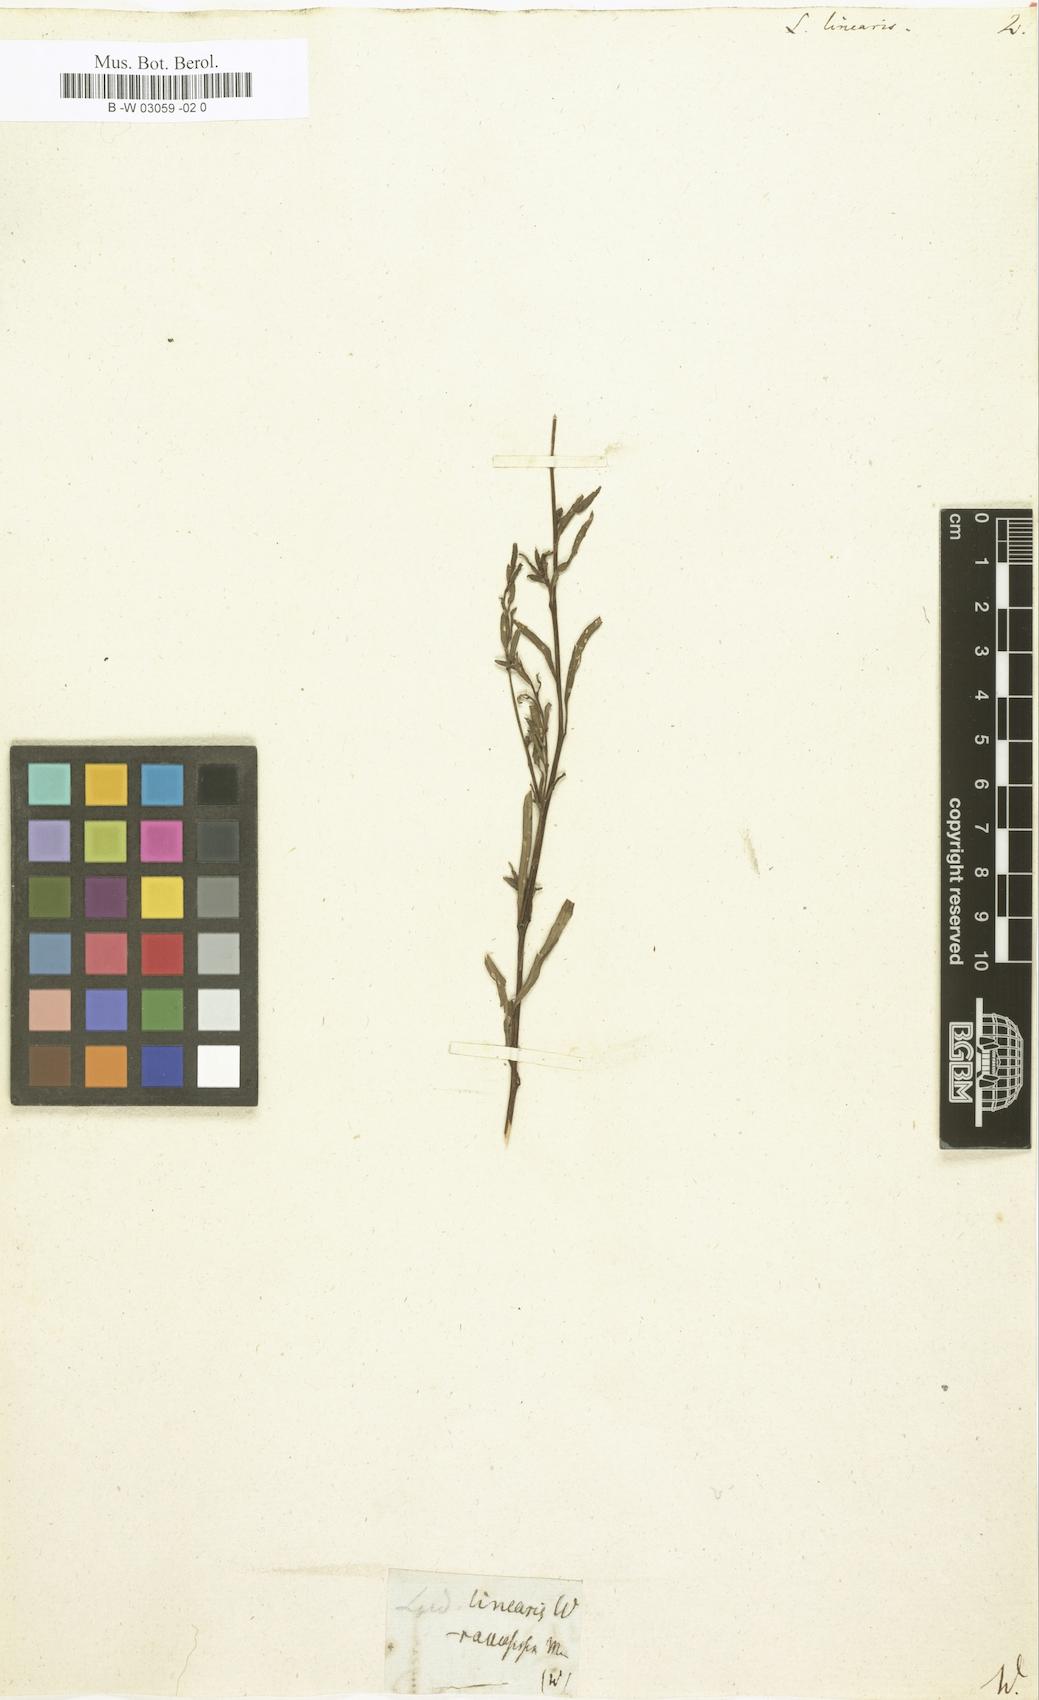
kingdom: Plantae
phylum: Tracheophyta
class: Magnoliopsida
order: Myrtales
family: Onagraceae
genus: Ludwigia
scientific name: Ludwigia linearis
